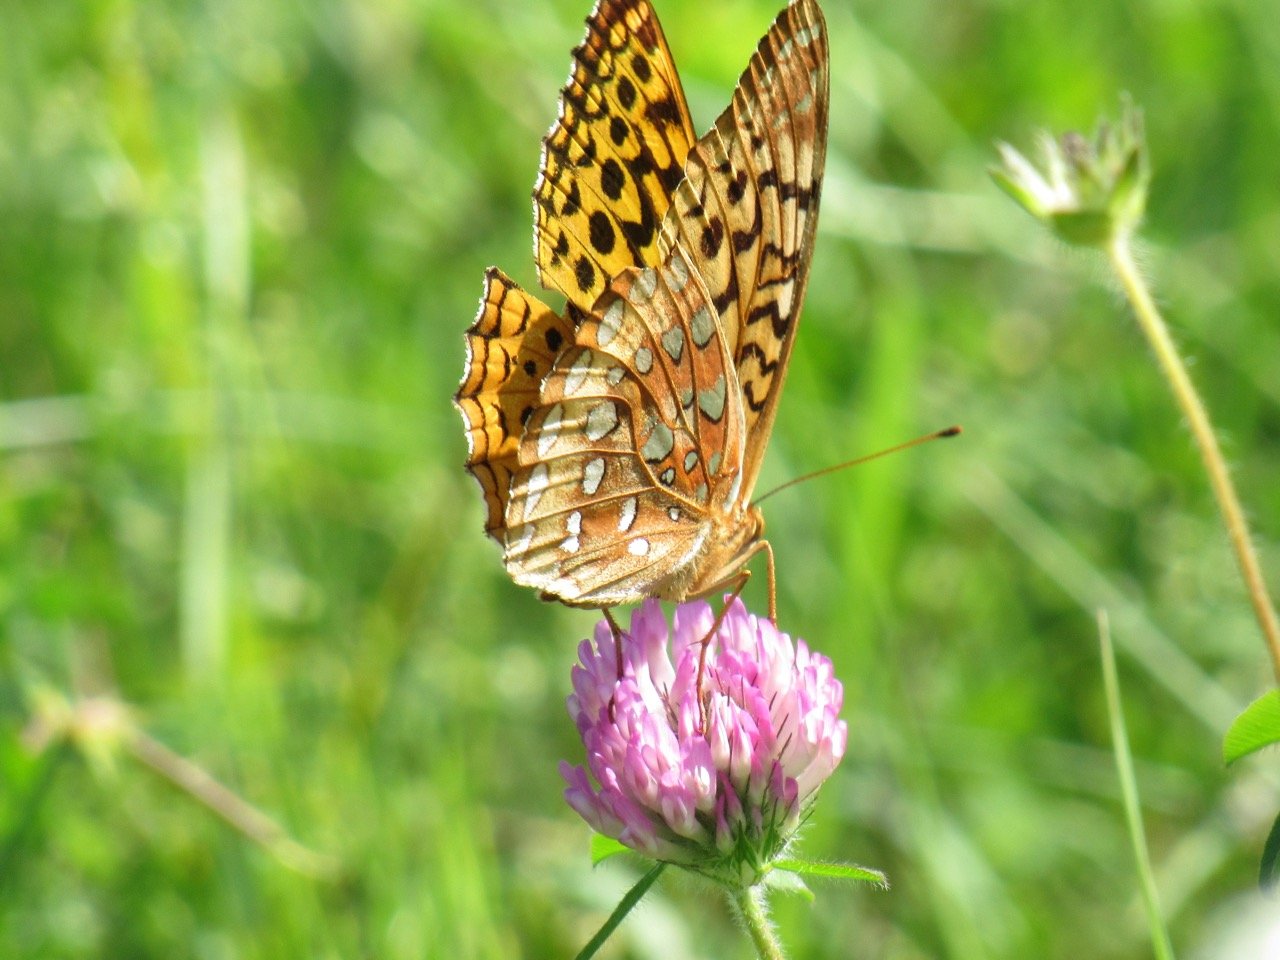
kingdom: Animalia
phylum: Arthropoda
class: Insecta
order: Lepidoptera
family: Nymphalidae
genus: Speyeria
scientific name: Speyeria cybele
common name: Great Spangled Fritillary
